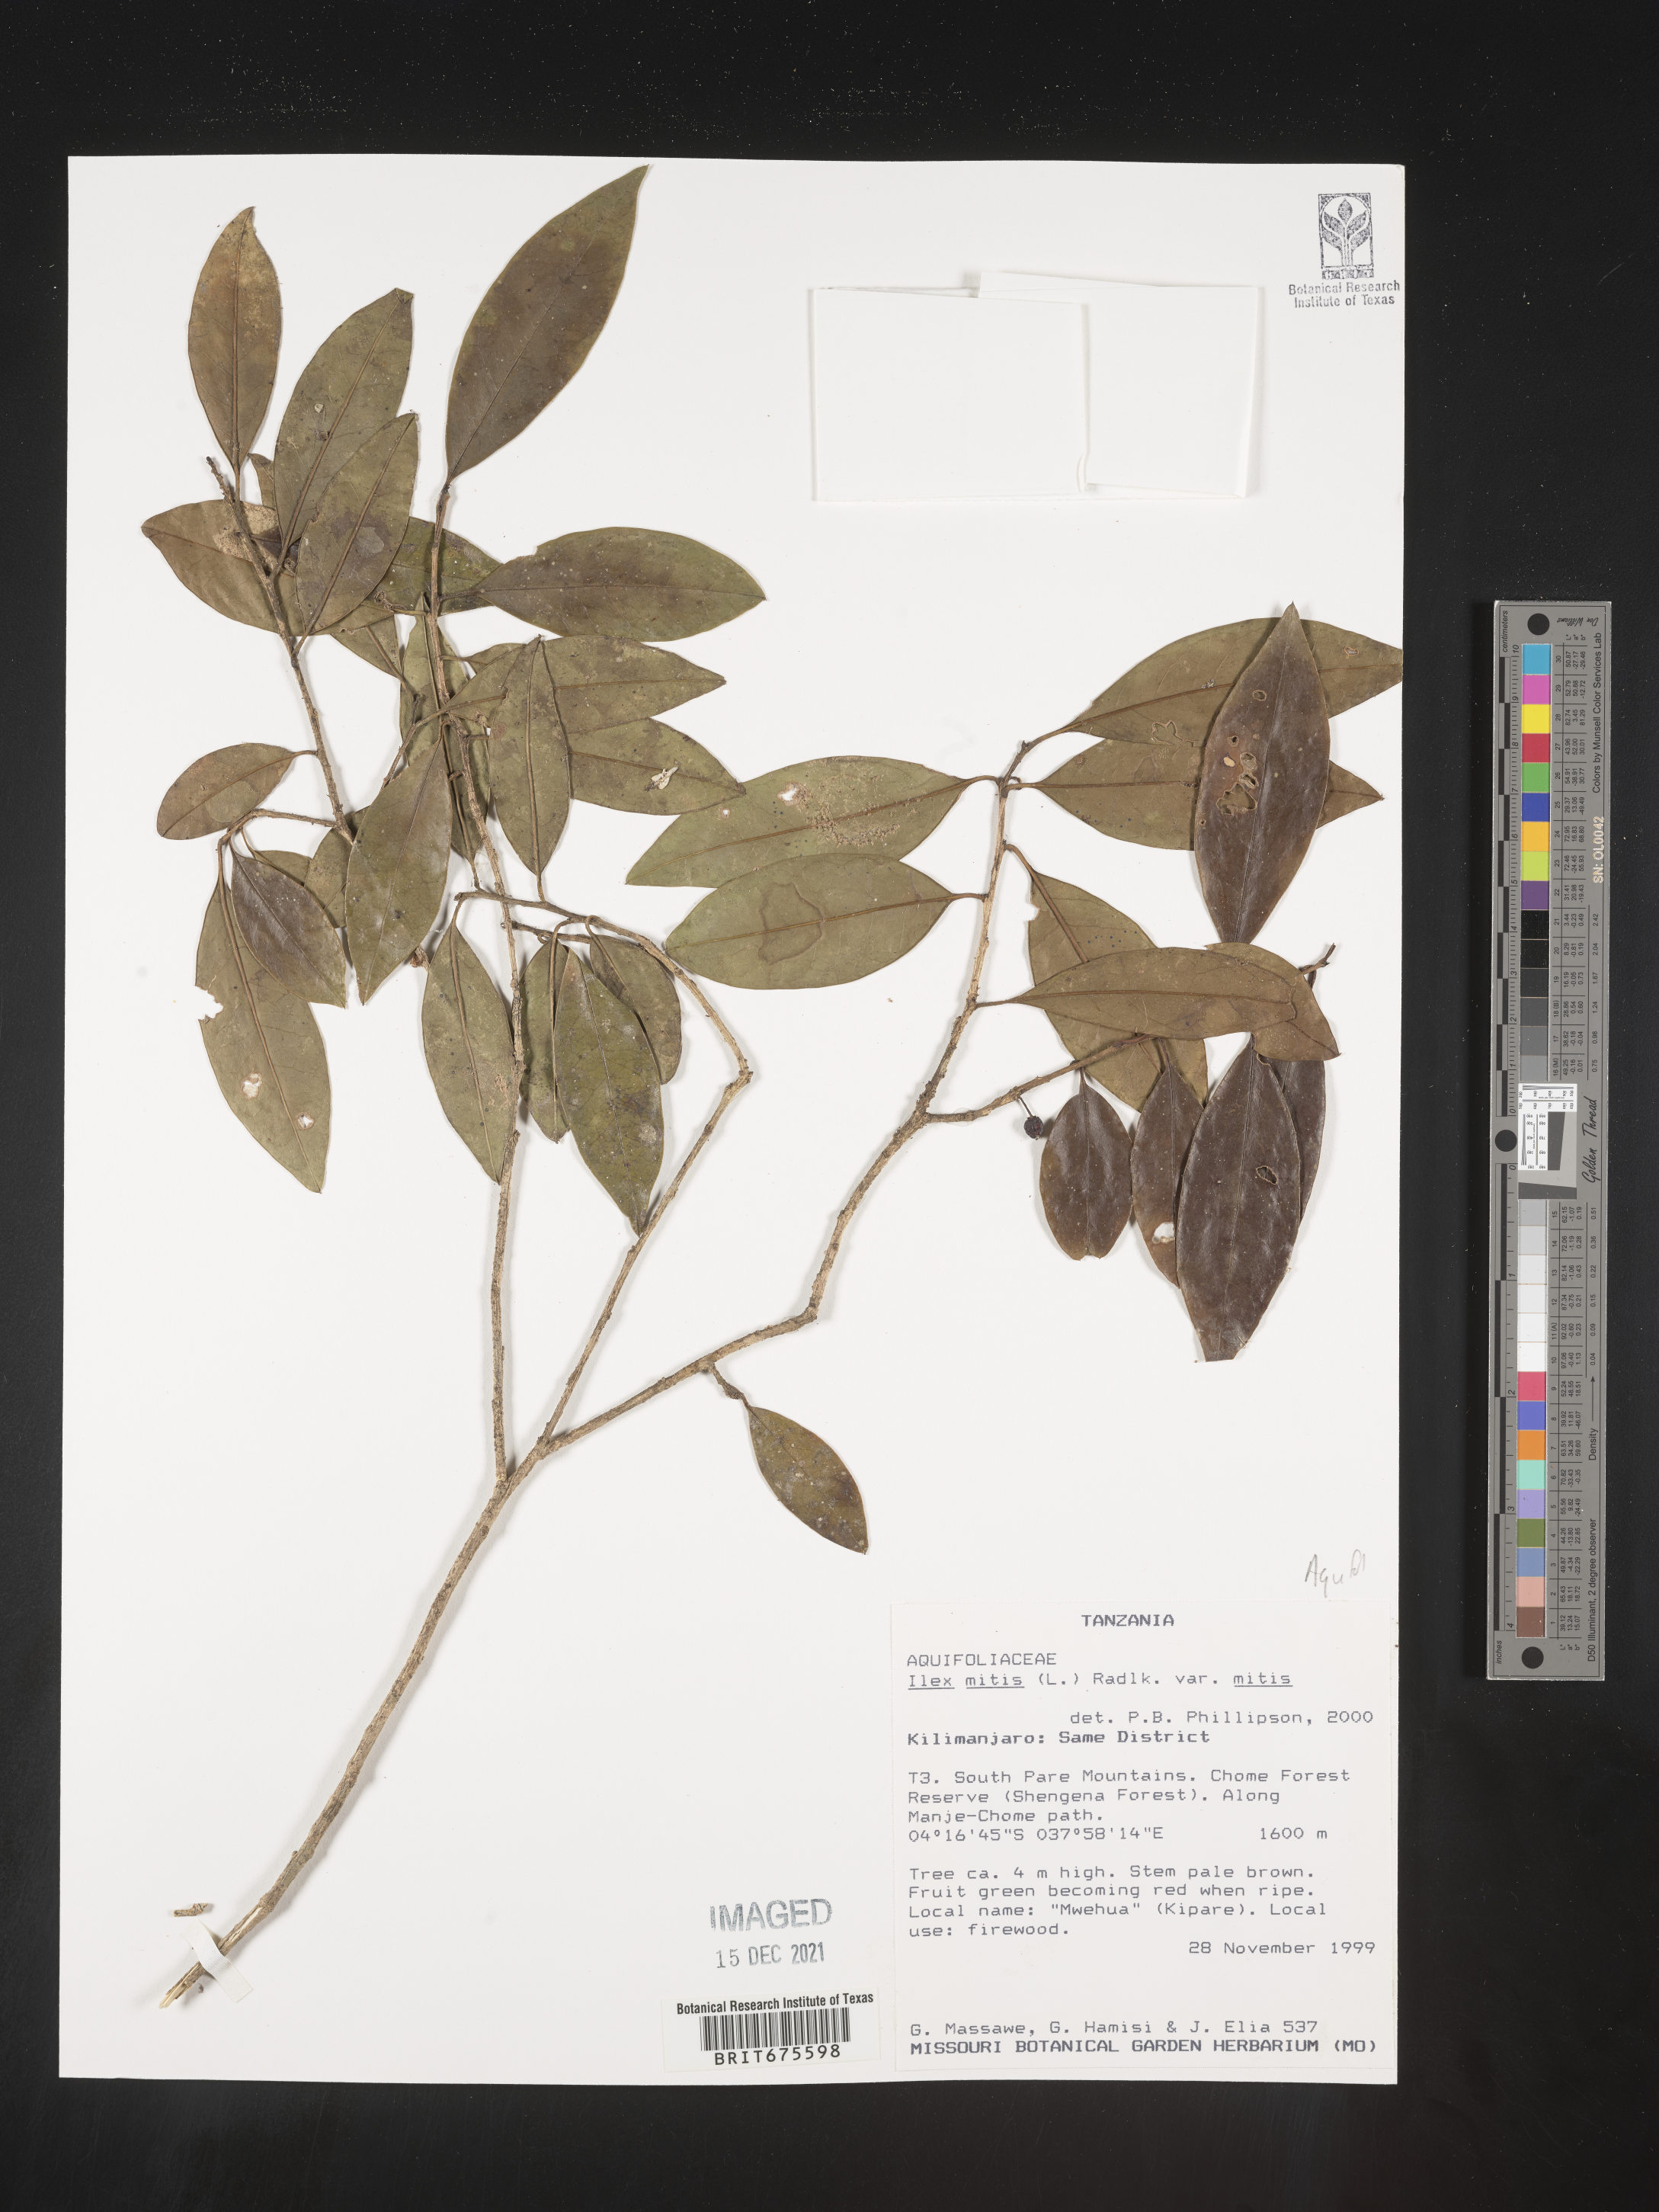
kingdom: Plantae
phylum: Tracheophyta
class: Magnoliopsida
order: Aquifoliales
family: Aquifoliaceae
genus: Ilex
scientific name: Ilex
